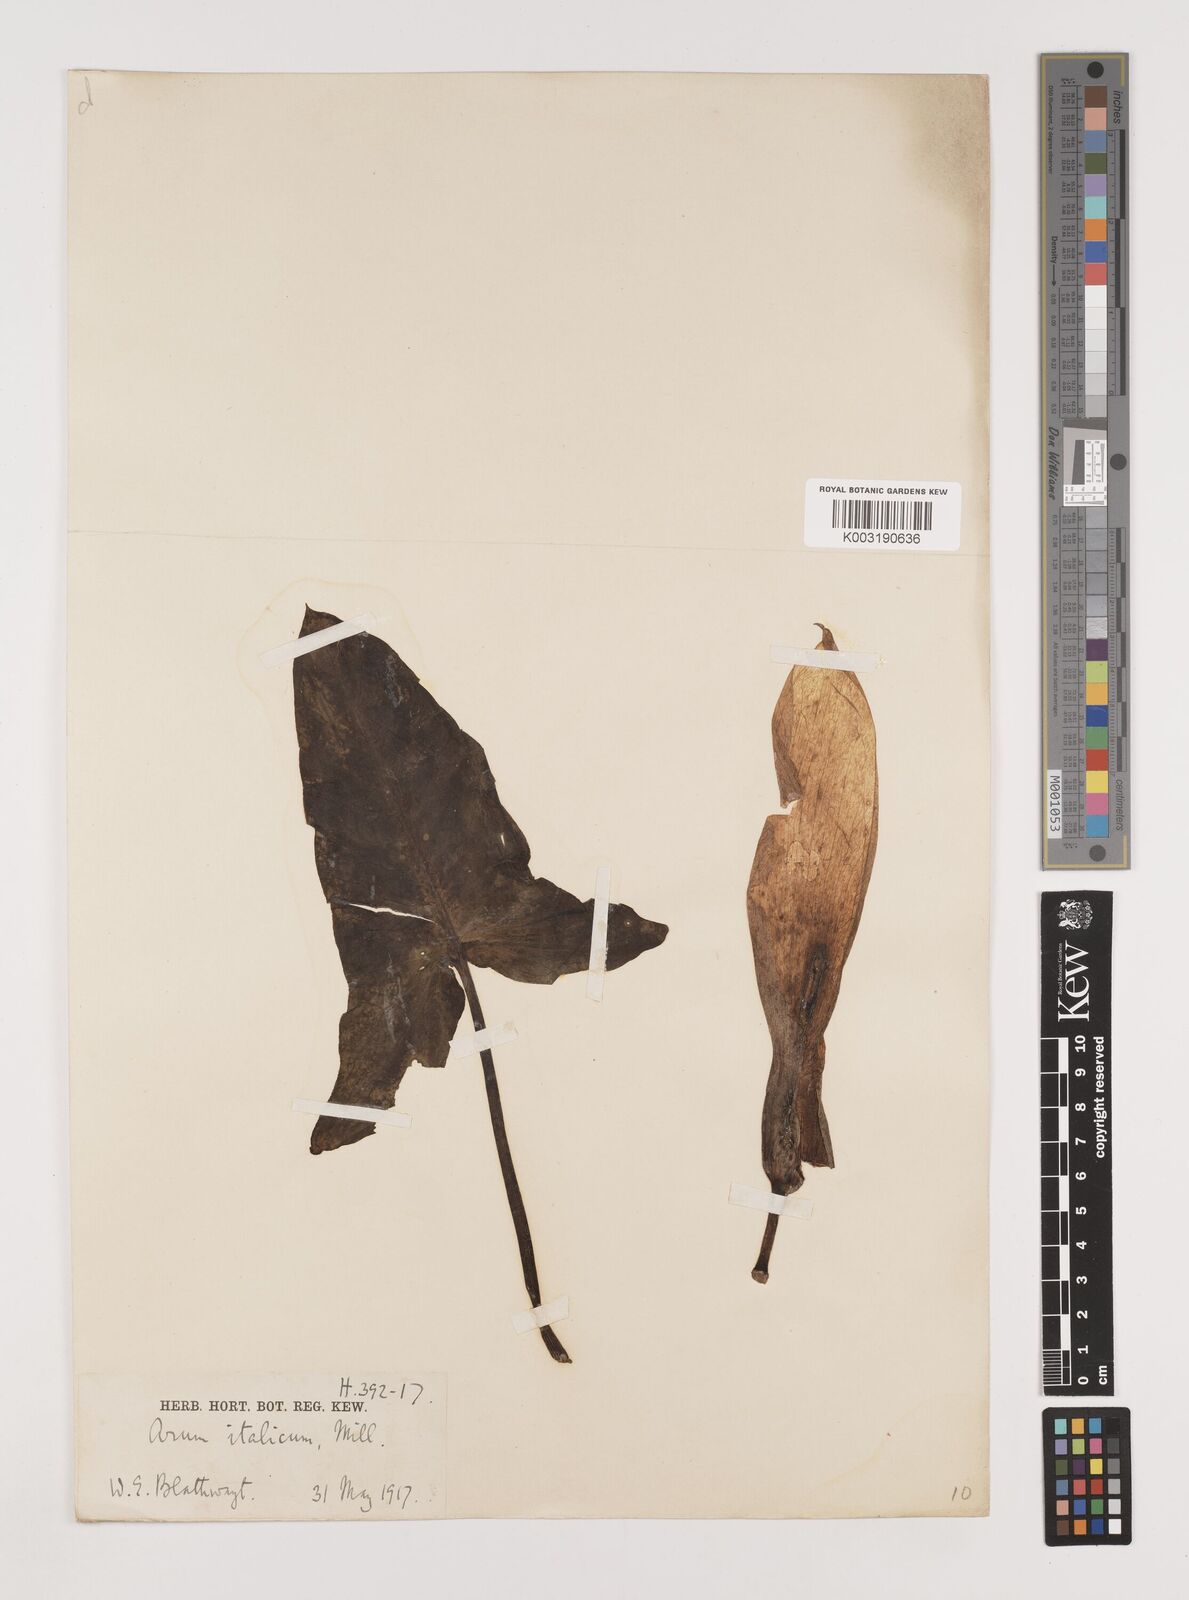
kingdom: Plantae
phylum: Tracheophyta
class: Liliopsida
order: Alismatales
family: Araceae
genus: Arum
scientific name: Arum italicum
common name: Italian lords-and-ladies
